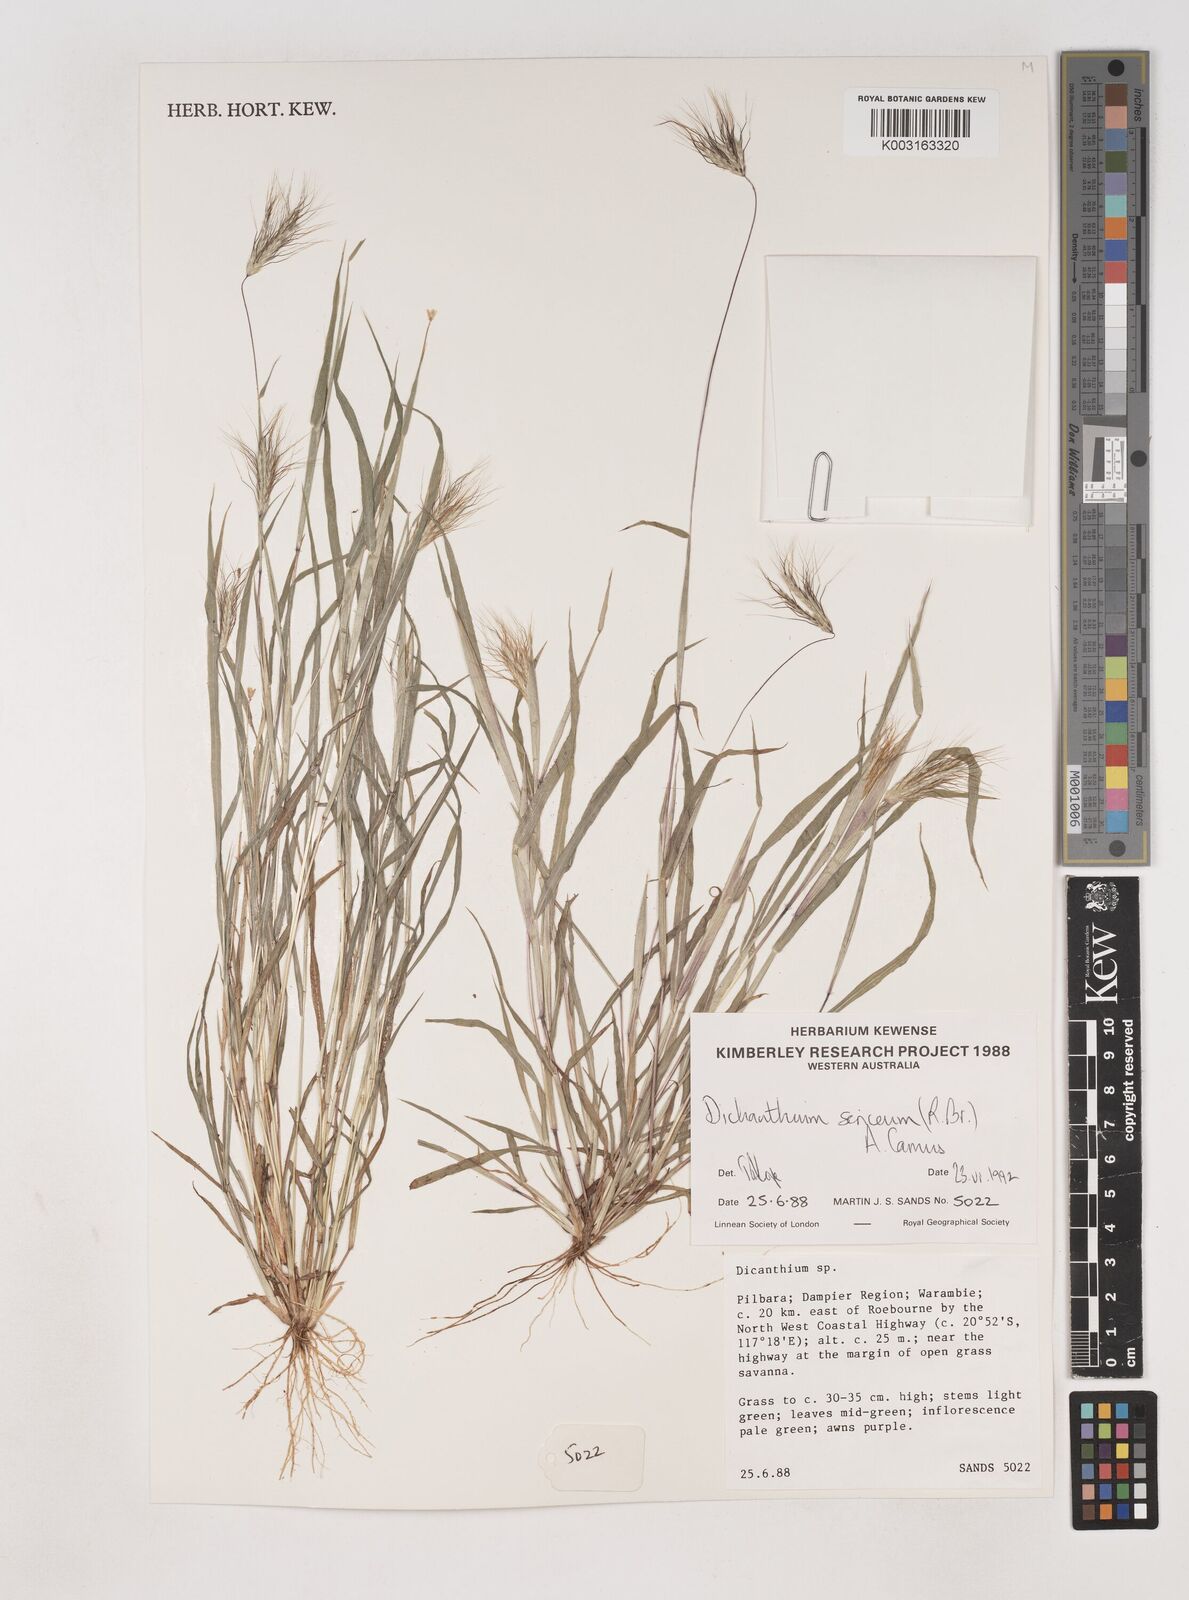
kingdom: Plantae
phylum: Tracheophyta
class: Liliopsida
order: Poales
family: Poaceae
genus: Dichanthium
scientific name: Dichanthium sericeum
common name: Silky bluestem
